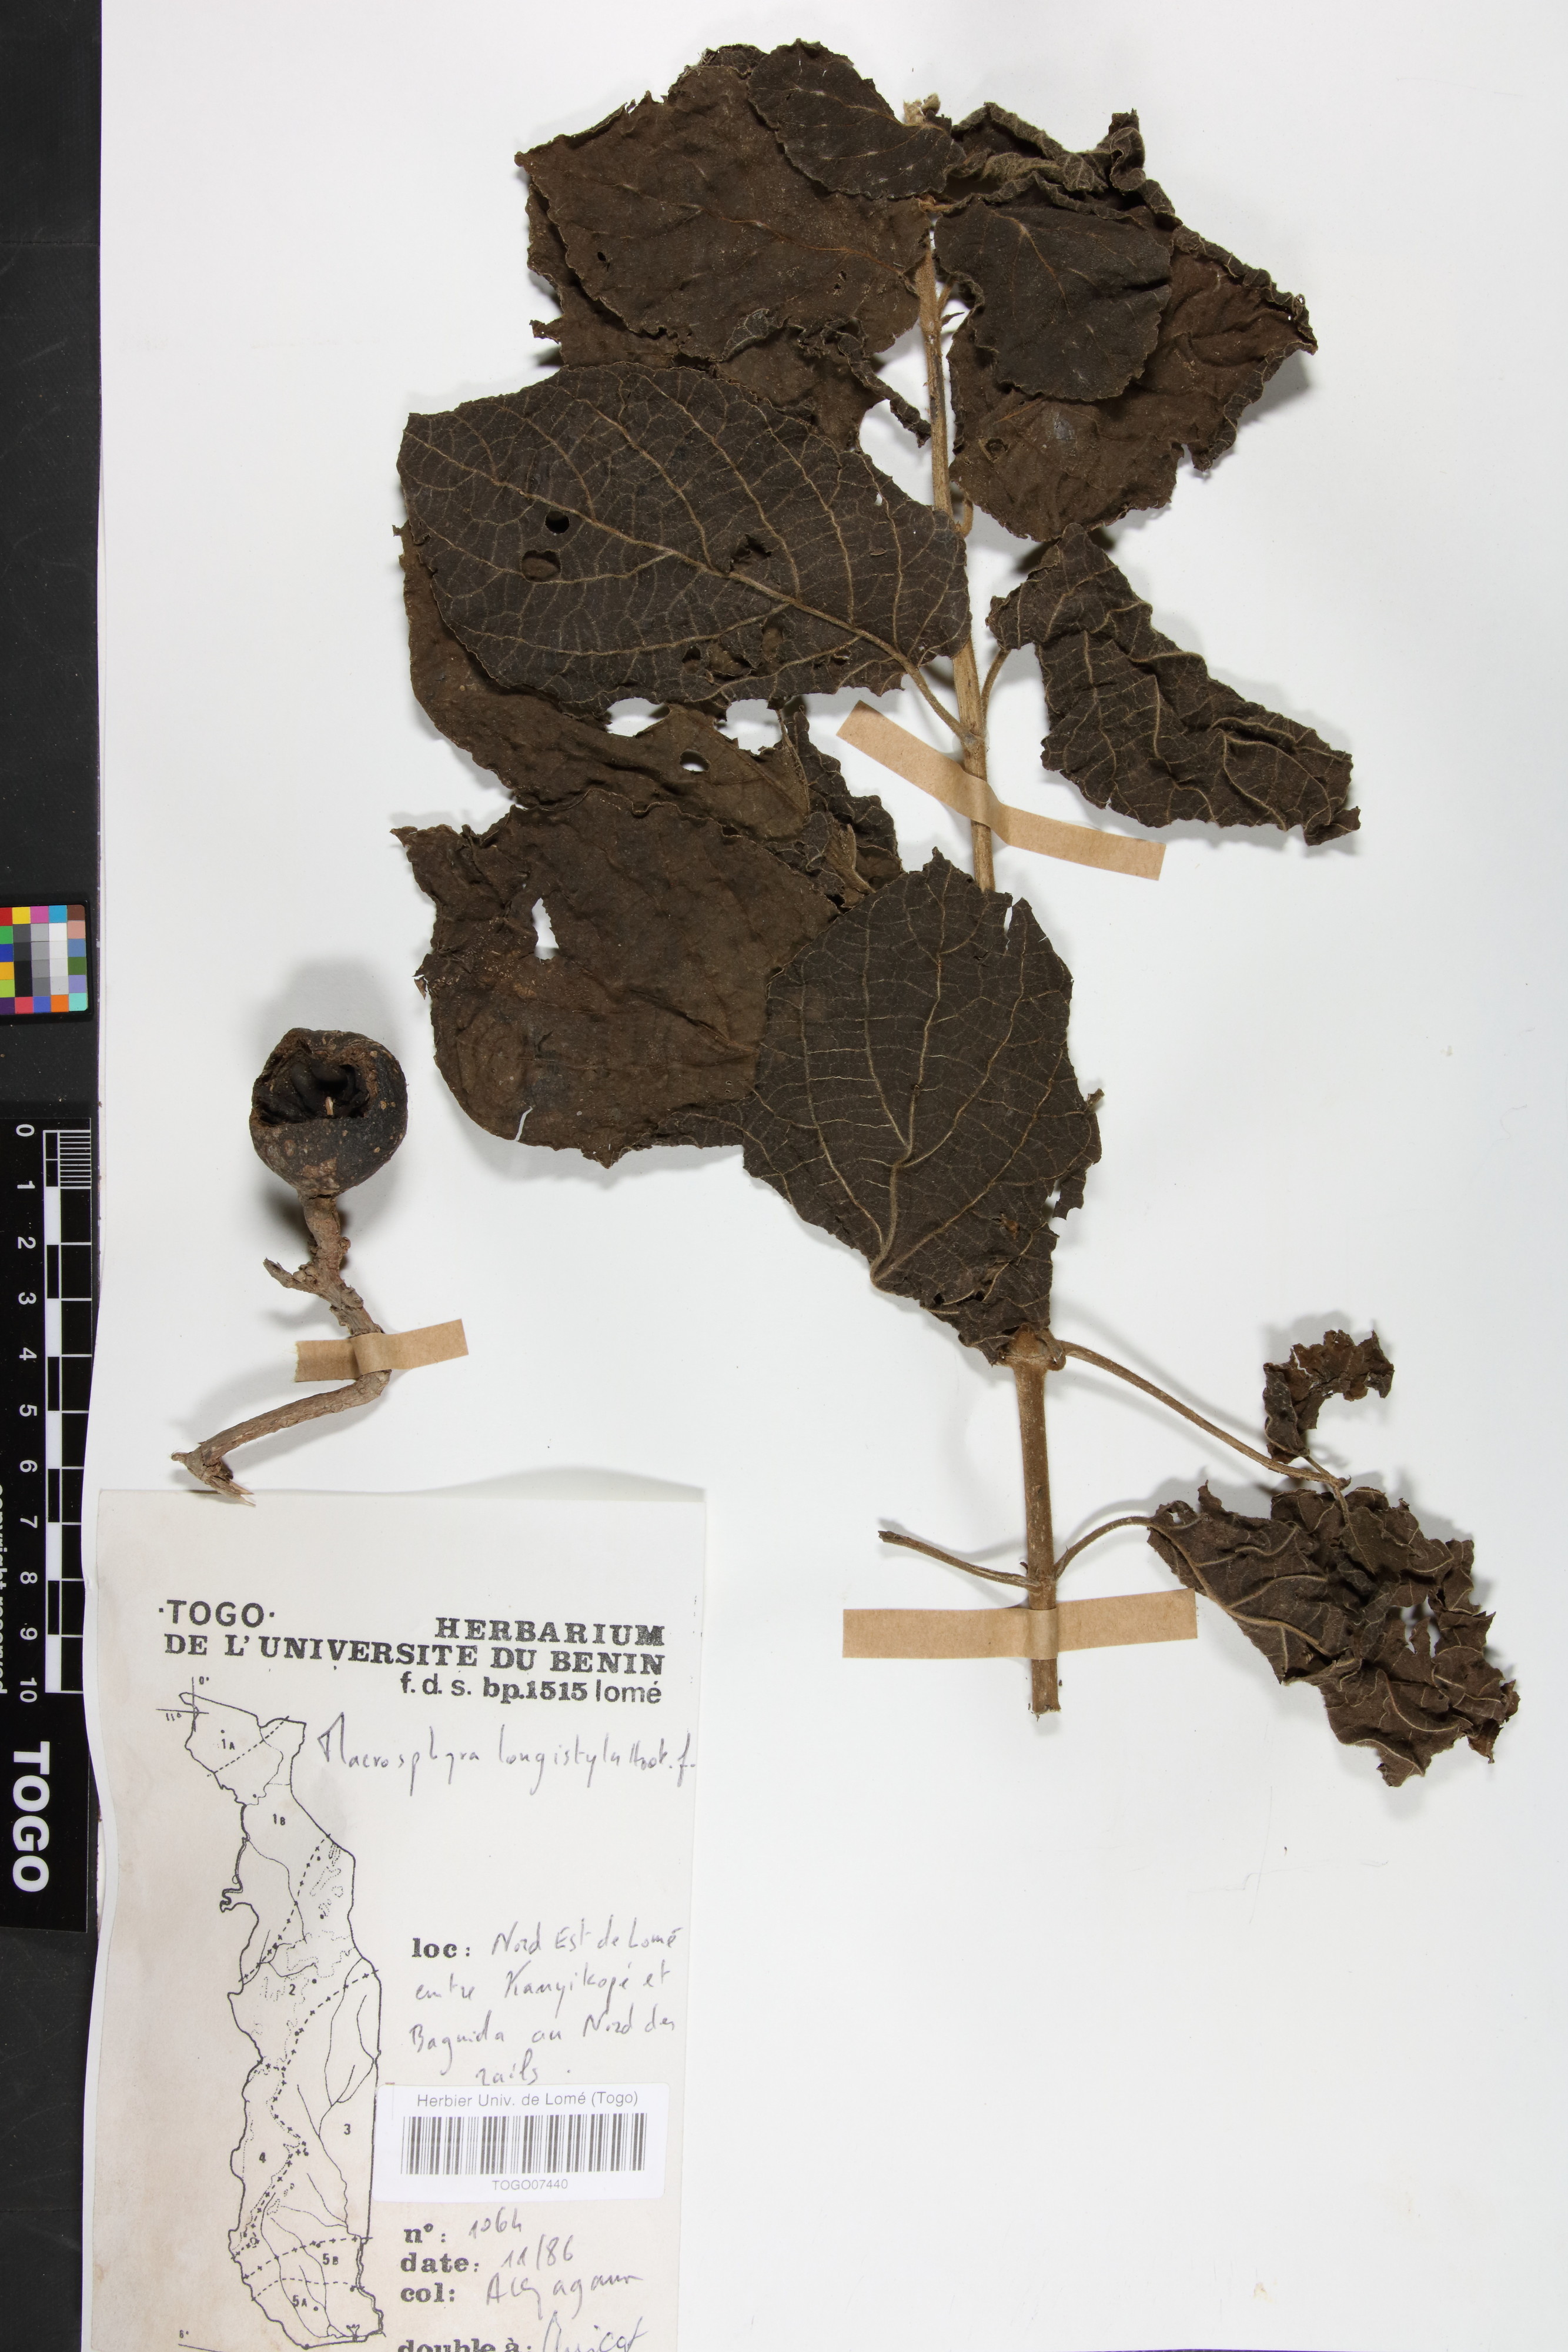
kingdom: Plantae
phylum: Tracheophyta
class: Magnoliopsida
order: Gentianales
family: Rubiaceae
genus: Macrosphyra
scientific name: Macrosphyra longistyla
